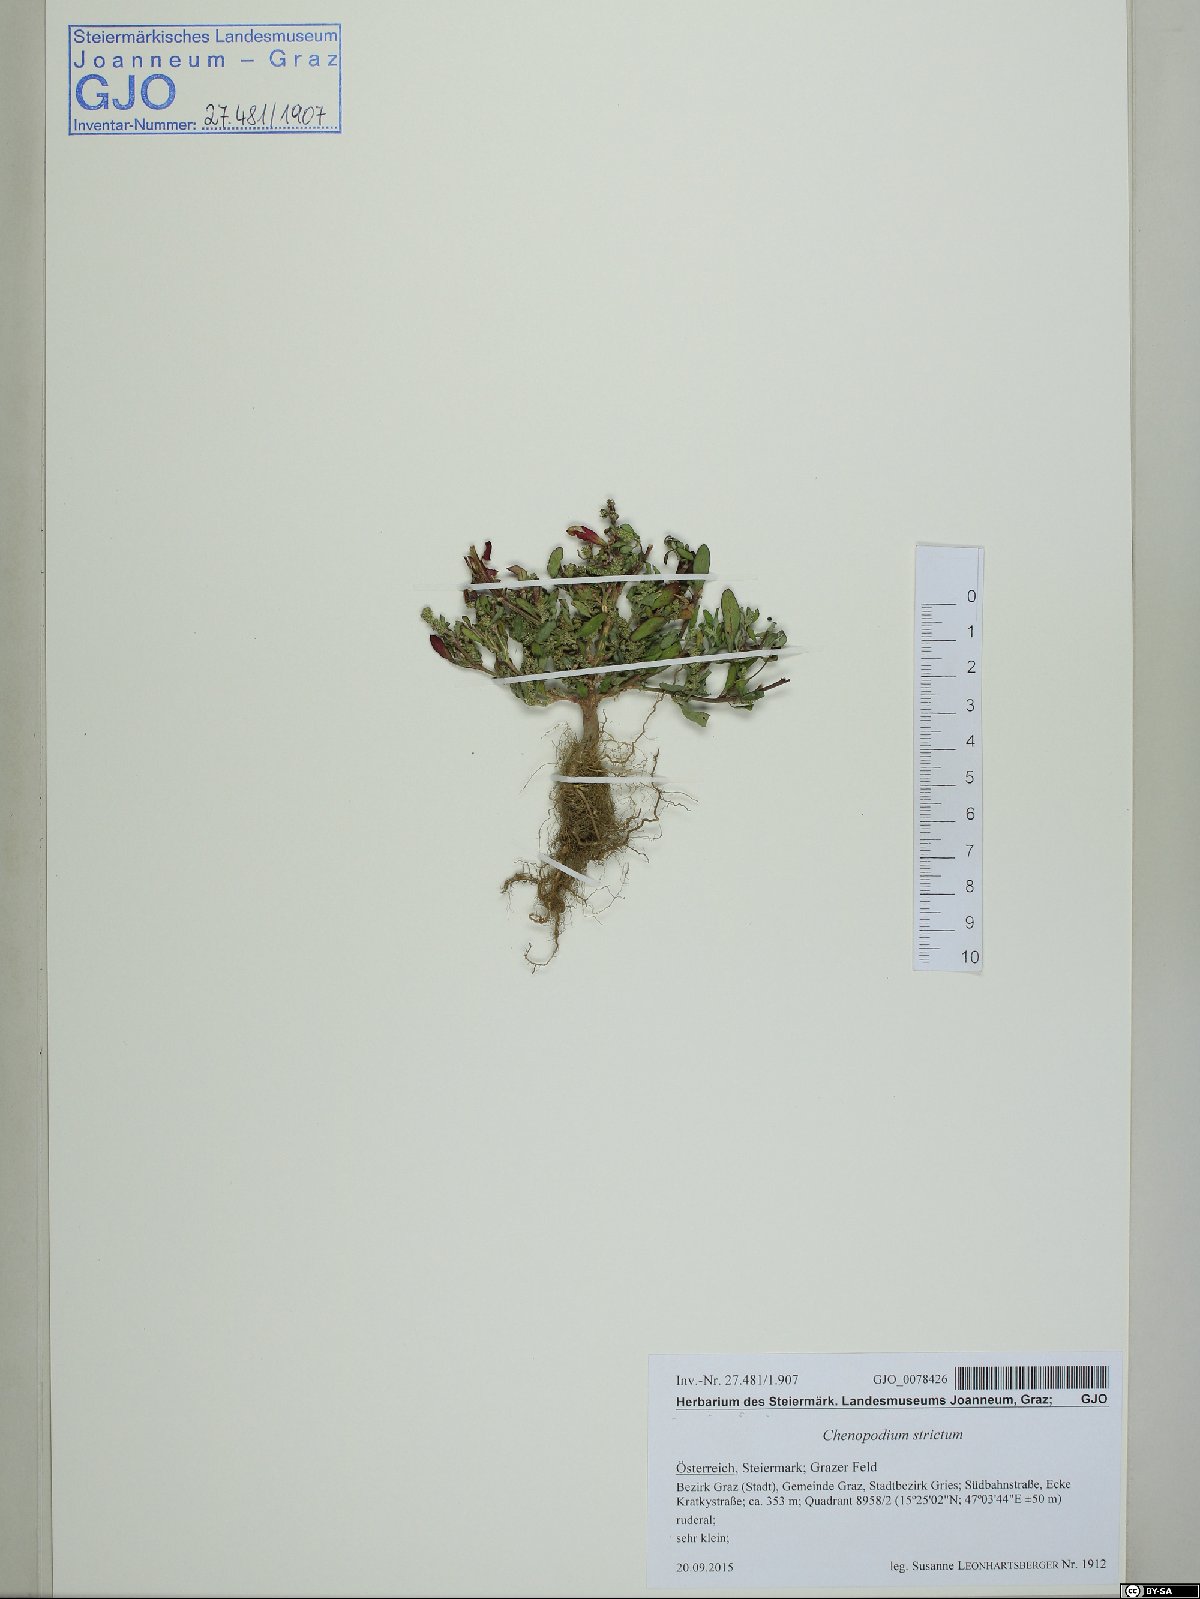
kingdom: Plantae
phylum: Tracheophyta
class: Magnoliopsida
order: Caryophyllales
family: Amaranthaceae
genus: Chenopodium
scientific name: Chenopodium album
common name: Fat-hen
